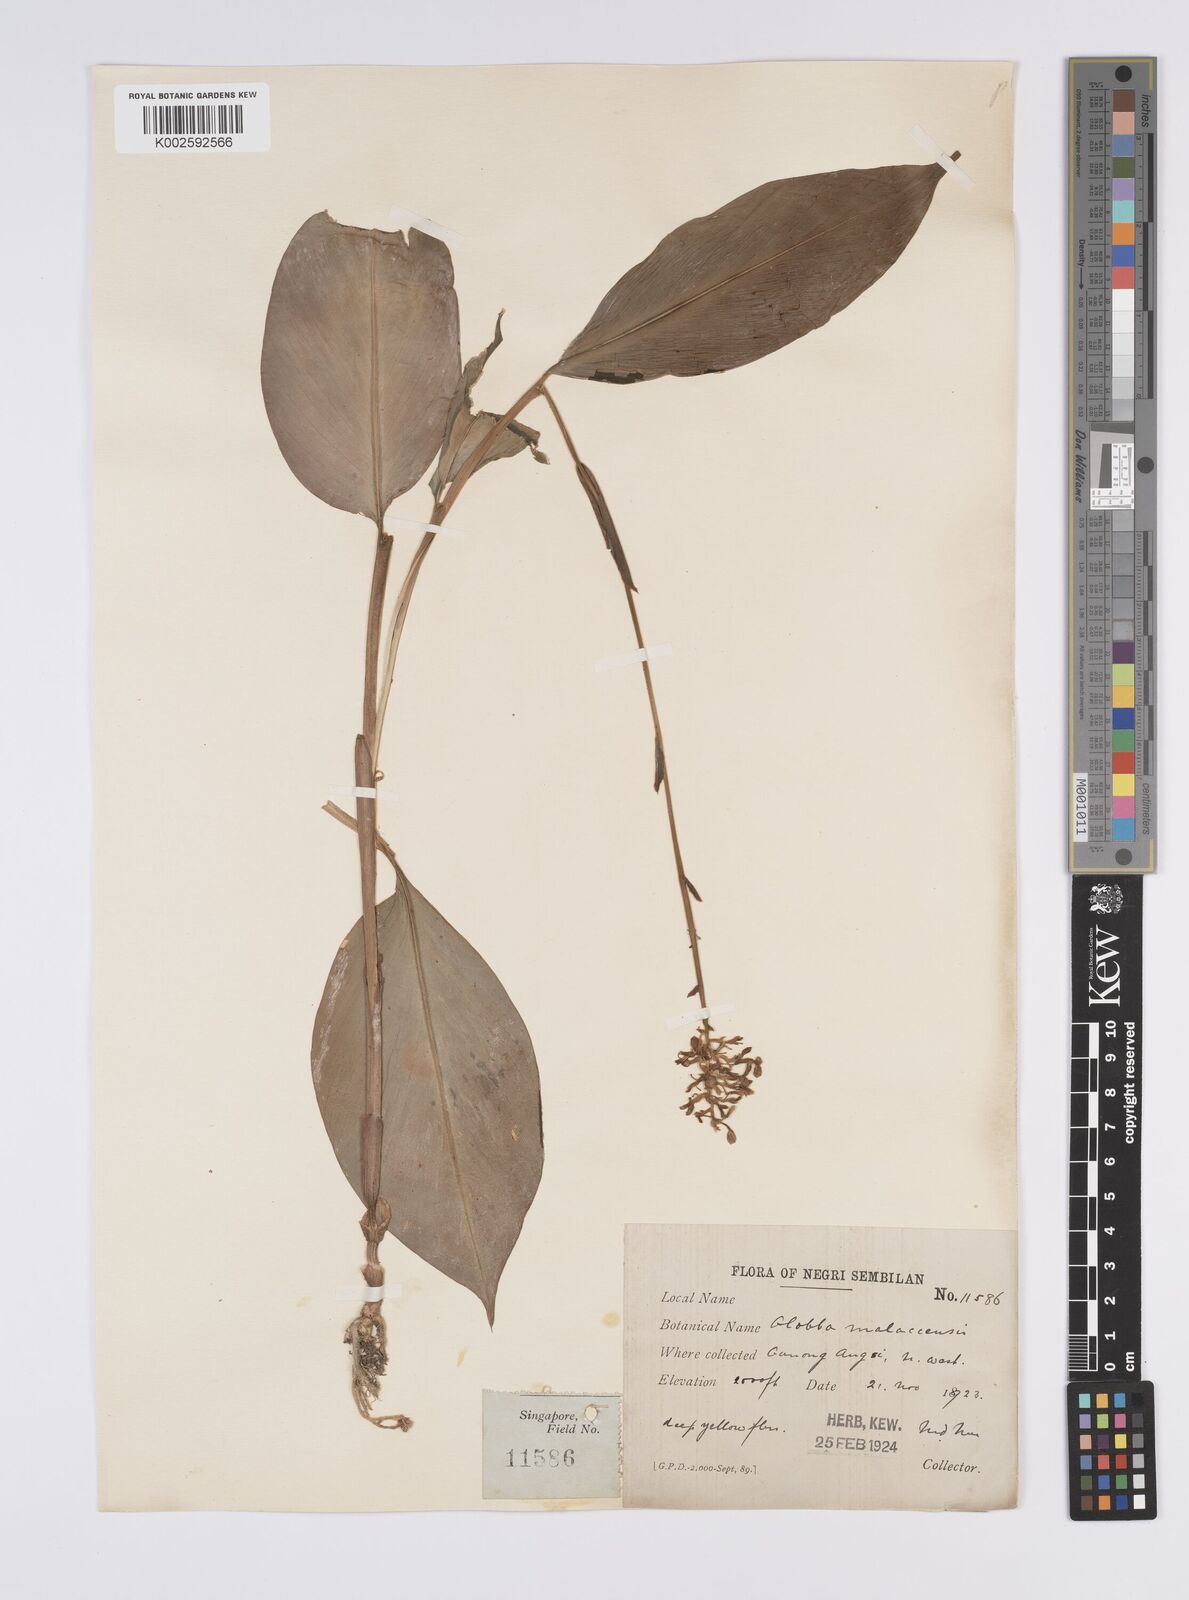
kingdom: Plantae
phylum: Tracheophyta
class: Liliopsida
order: Zingiberales
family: Zingiberaceae
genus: Globba
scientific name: Globba variabilis
